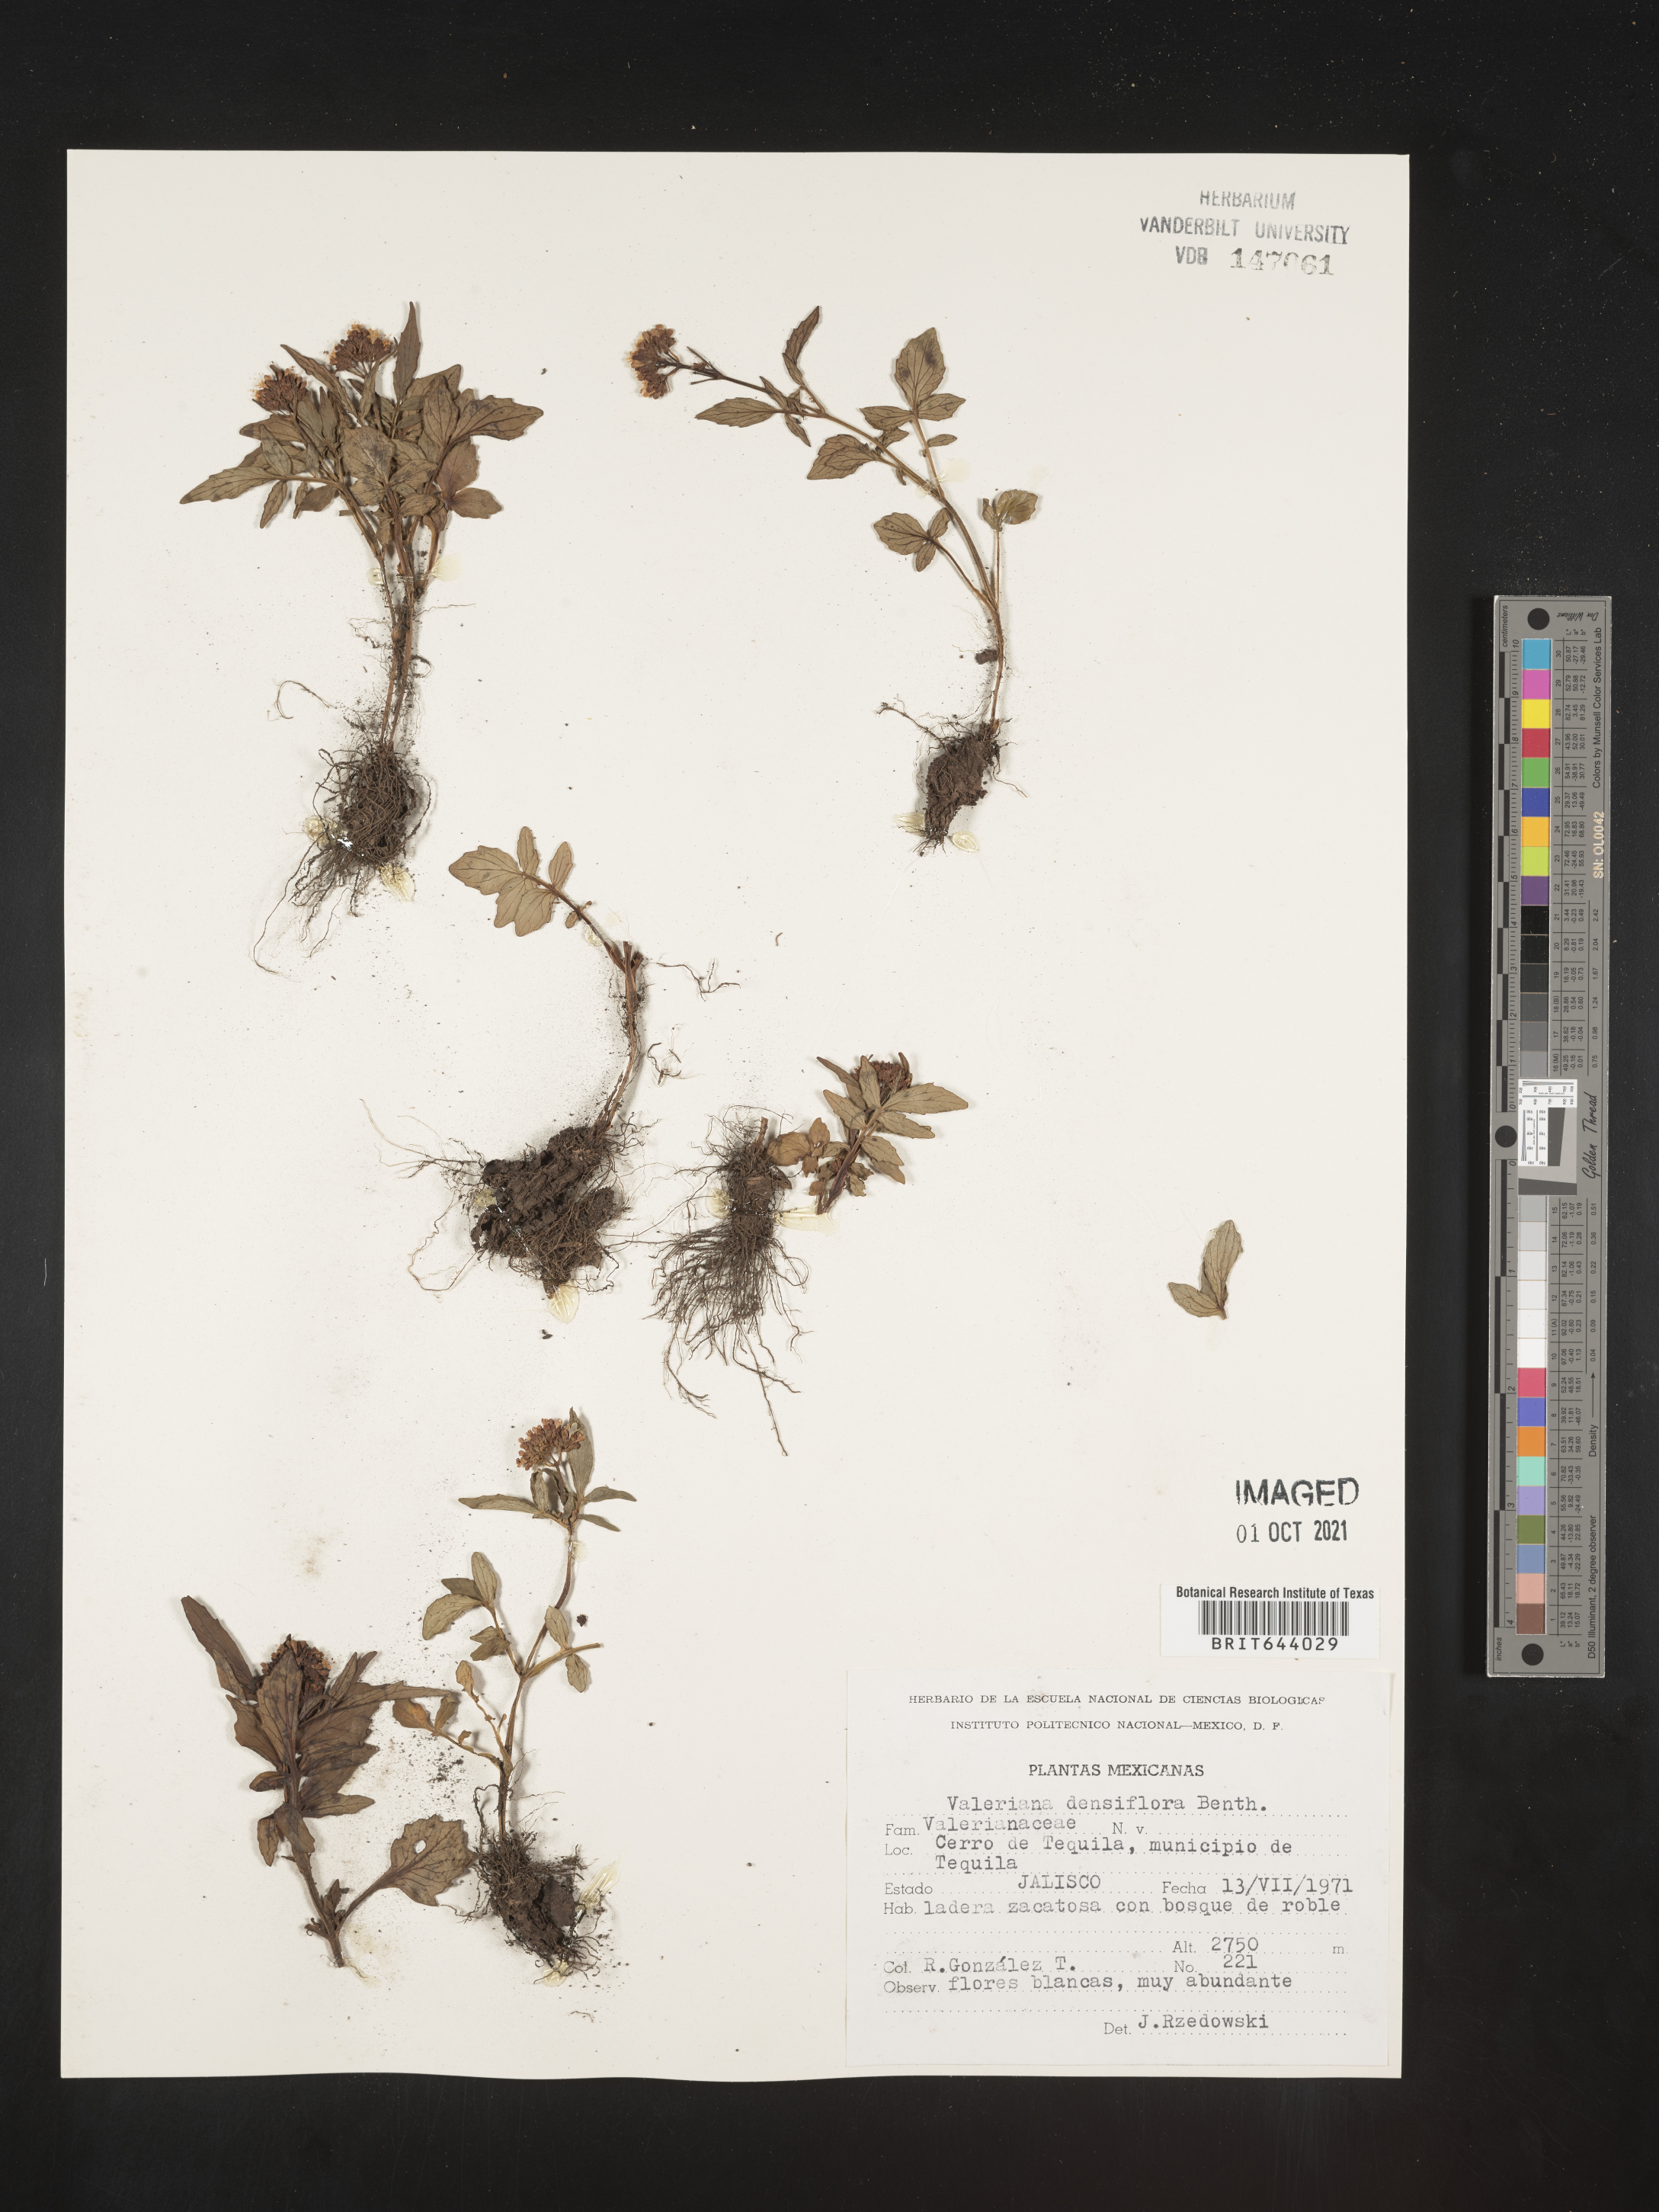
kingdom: Plantae
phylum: Tracheophyta
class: Magnoliopsida
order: Dipsacales
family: Caprifoliaceae
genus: Valeriana
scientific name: Valeriana
